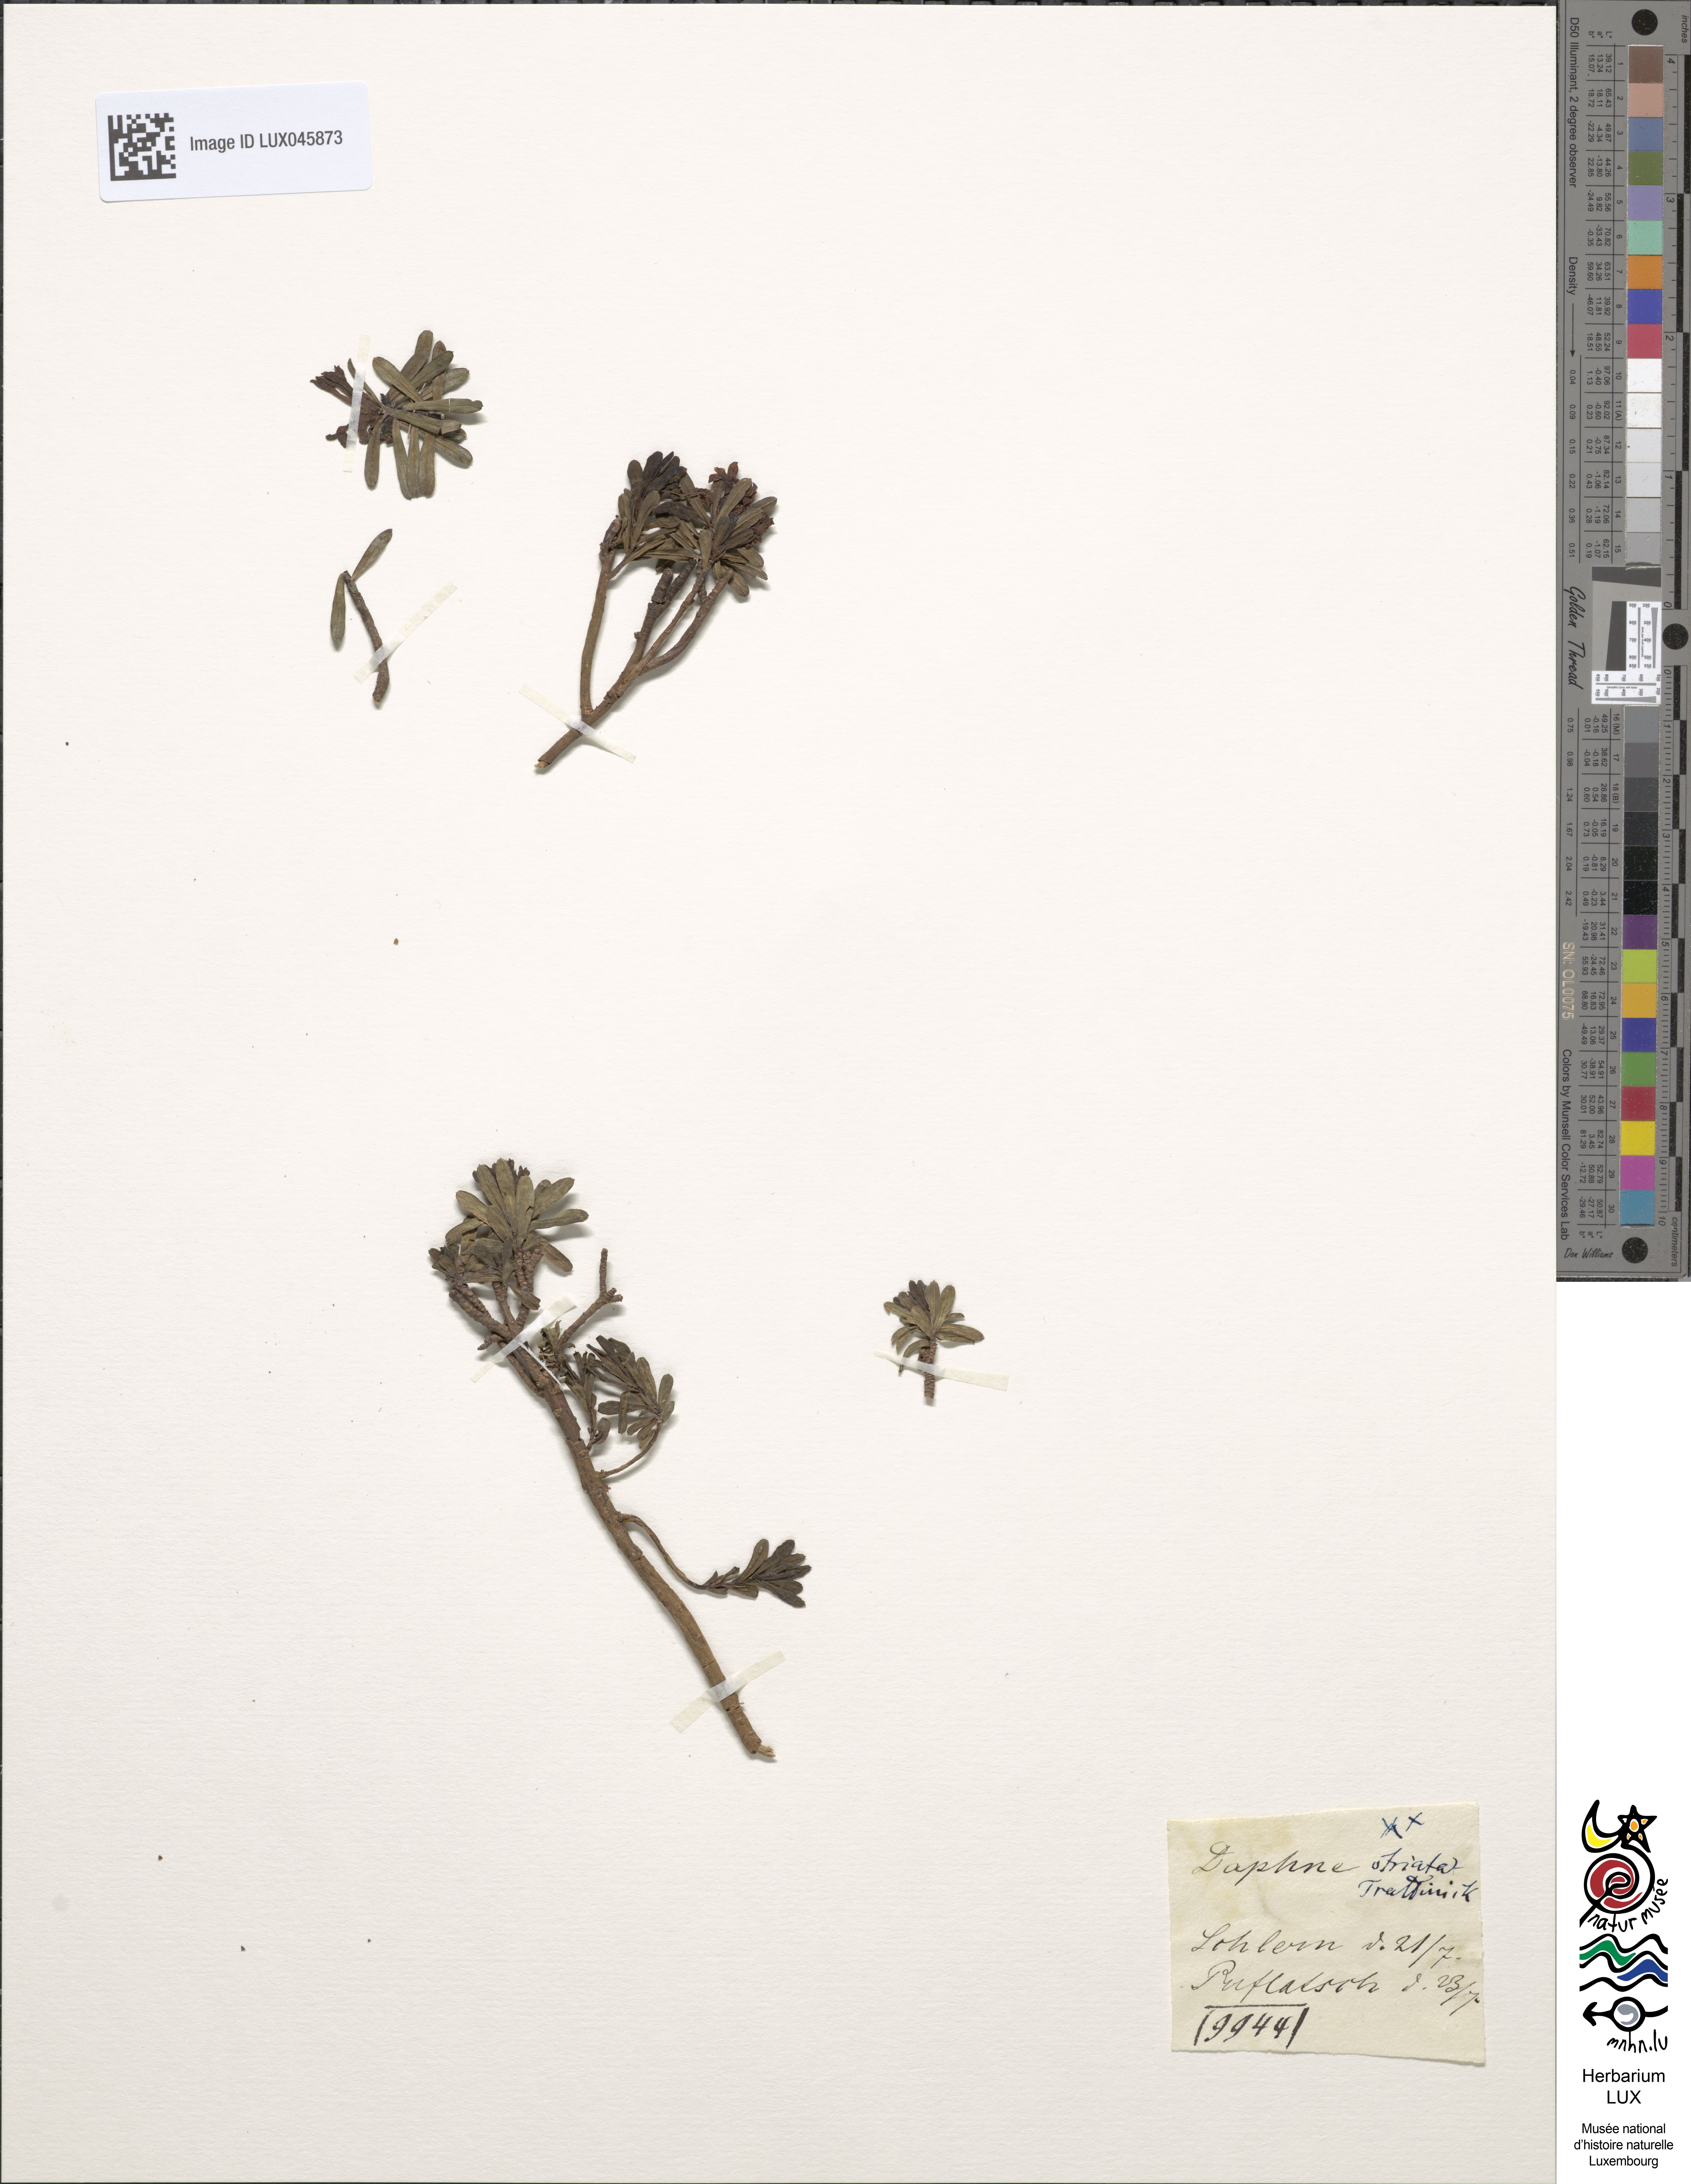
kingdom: Plantae
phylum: Tracheophyta
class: Magnoliopsida
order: Malvales
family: Thymelaeaceae
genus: Daphne
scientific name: Daphne striata
